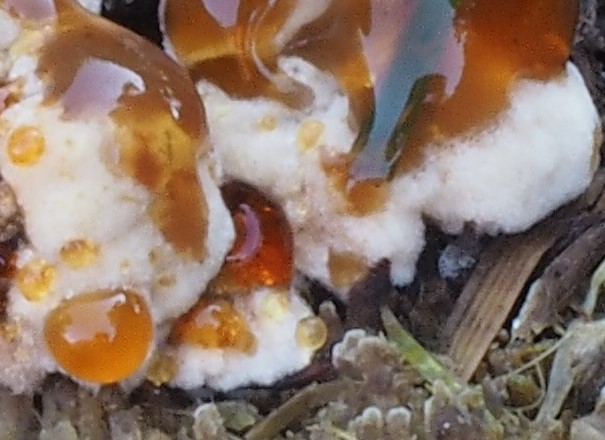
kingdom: Fungi
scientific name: Fungi
